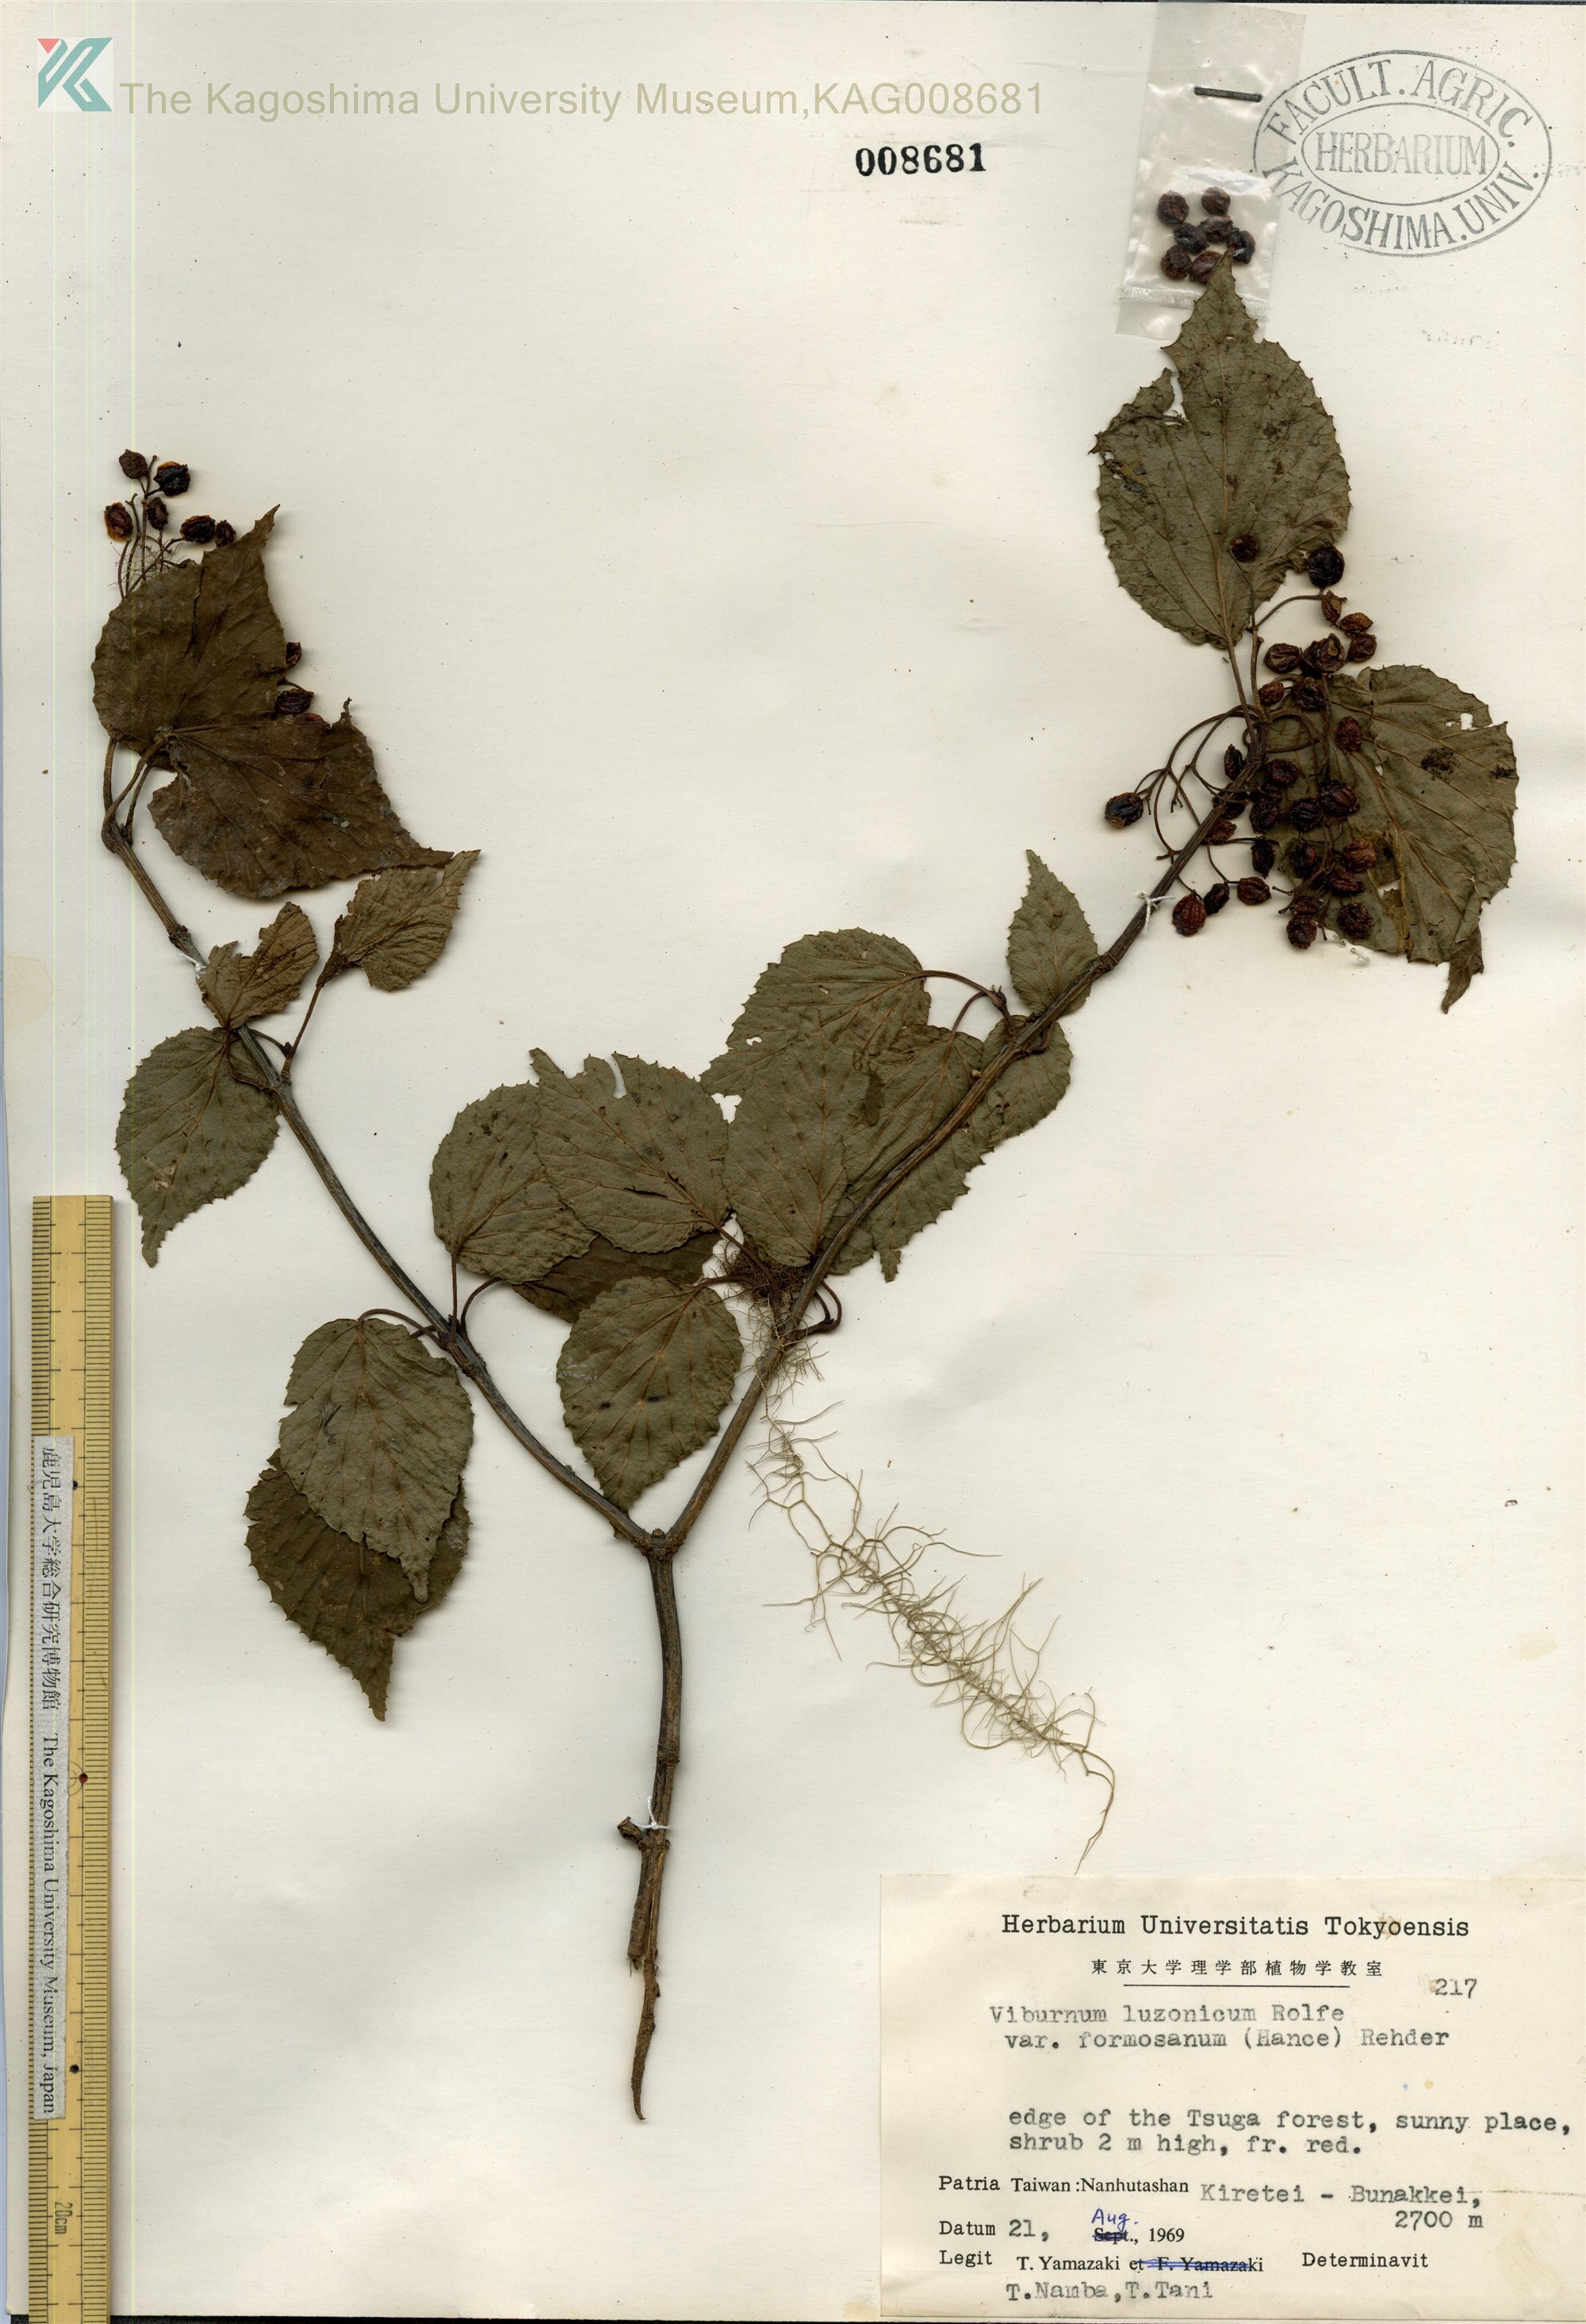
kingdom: Plantae
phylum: Tracheophyta
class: Magnoliopsida
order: Dipsacales
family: Viburnaceae
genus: Viburnum
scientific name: Viburnum mullaha
